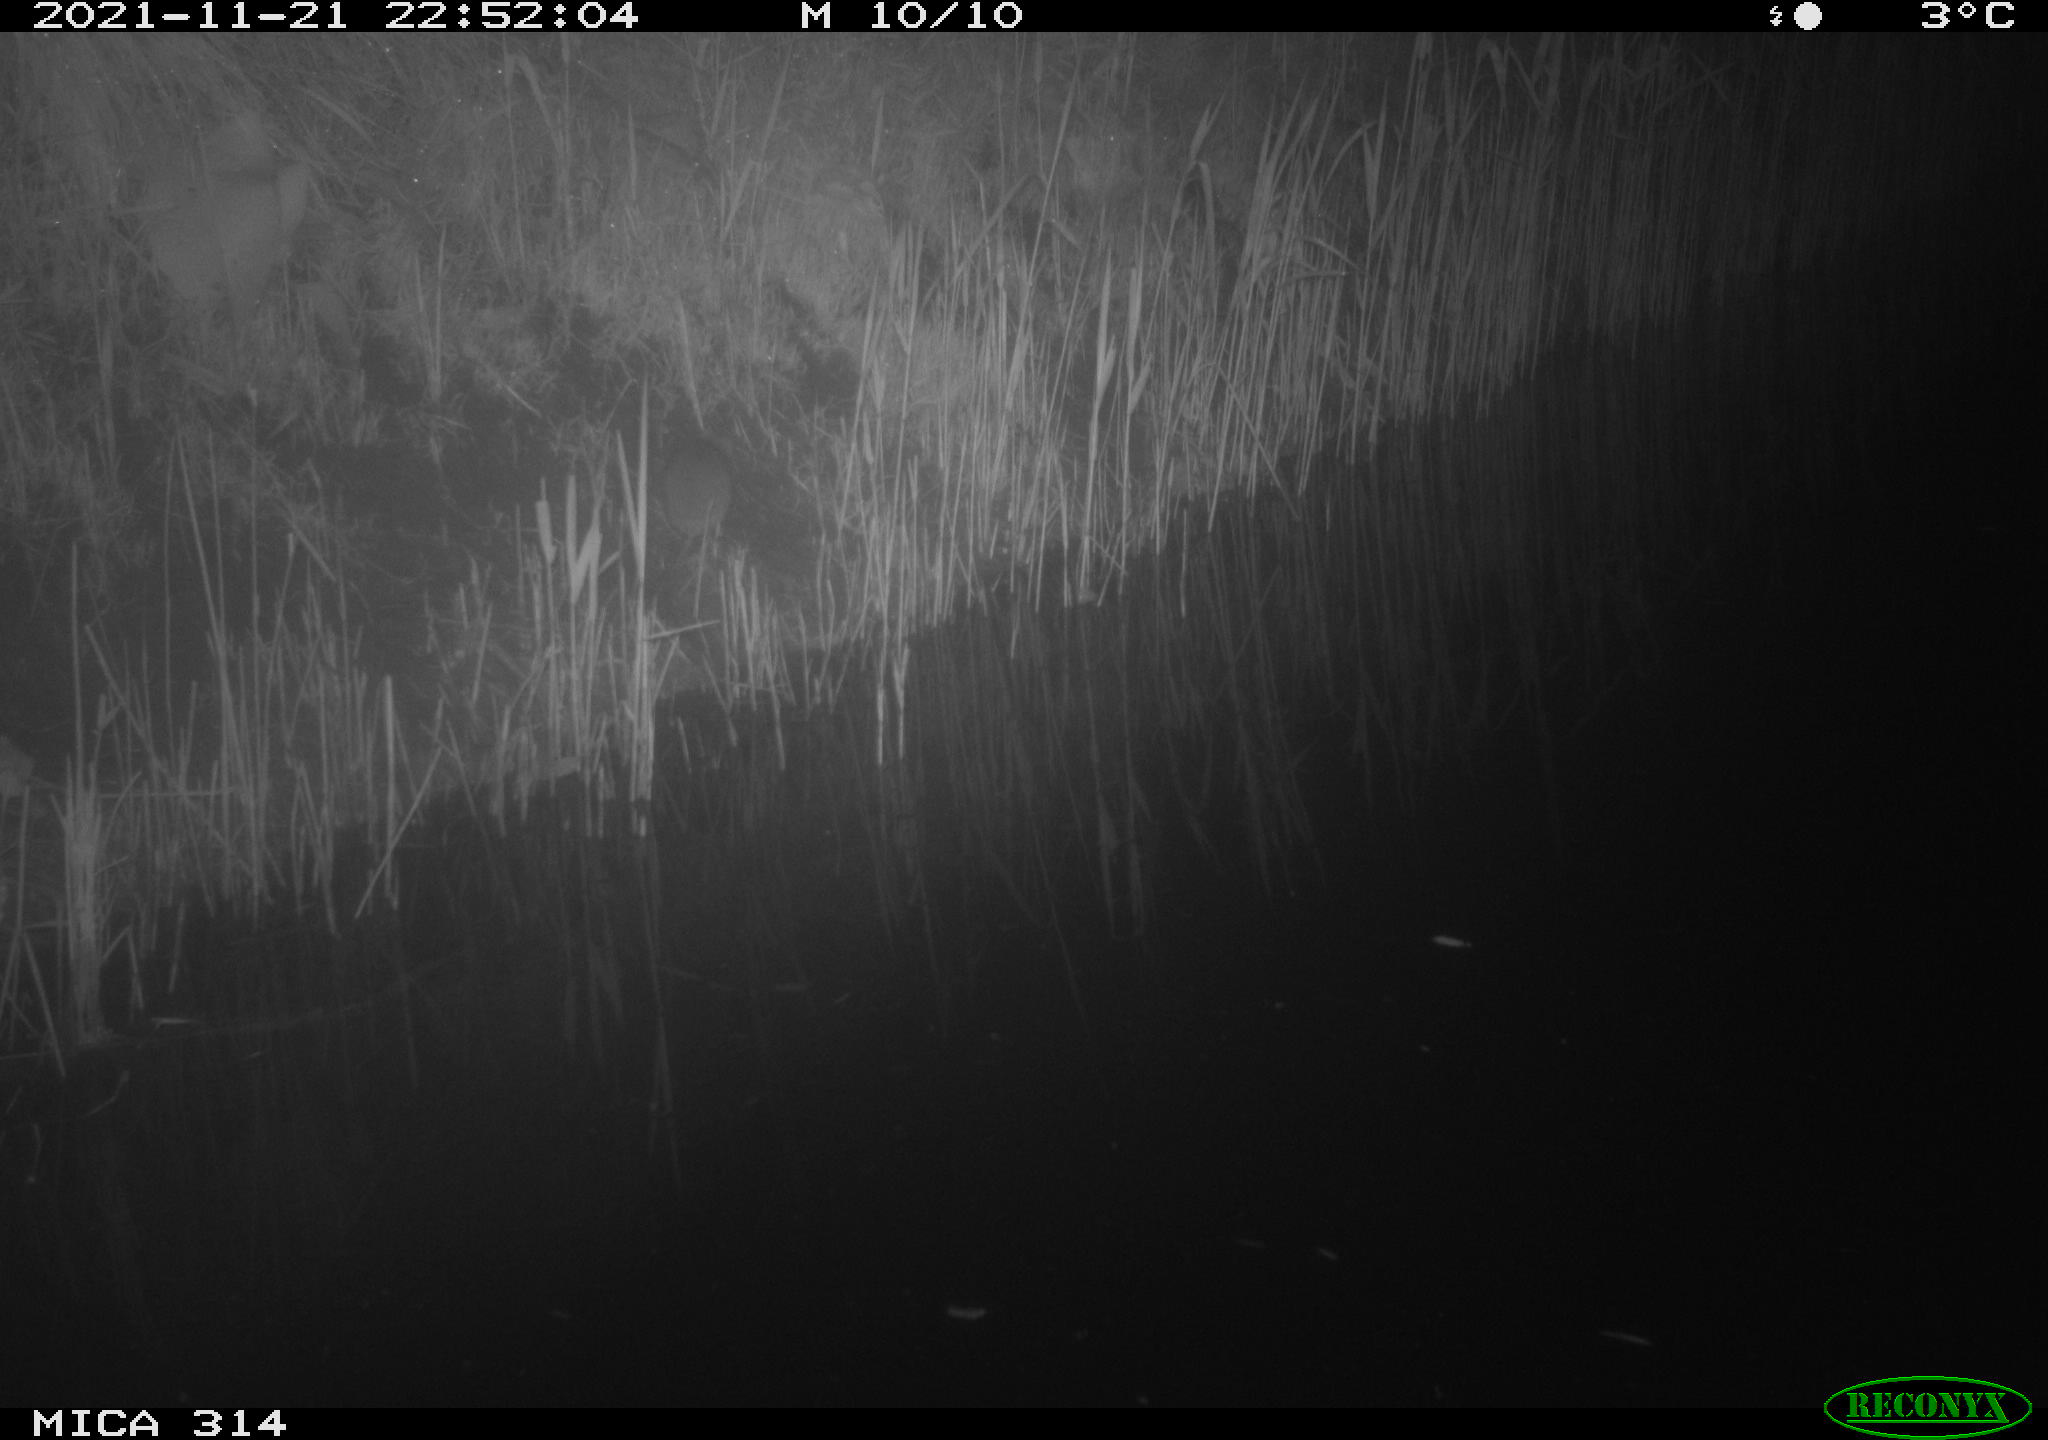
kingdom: Animalia
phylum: Chordata
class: Mammalia
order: Rodentia
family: Muridae
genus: Rattus
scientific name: Rattus norvegicus
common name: Brown rat
